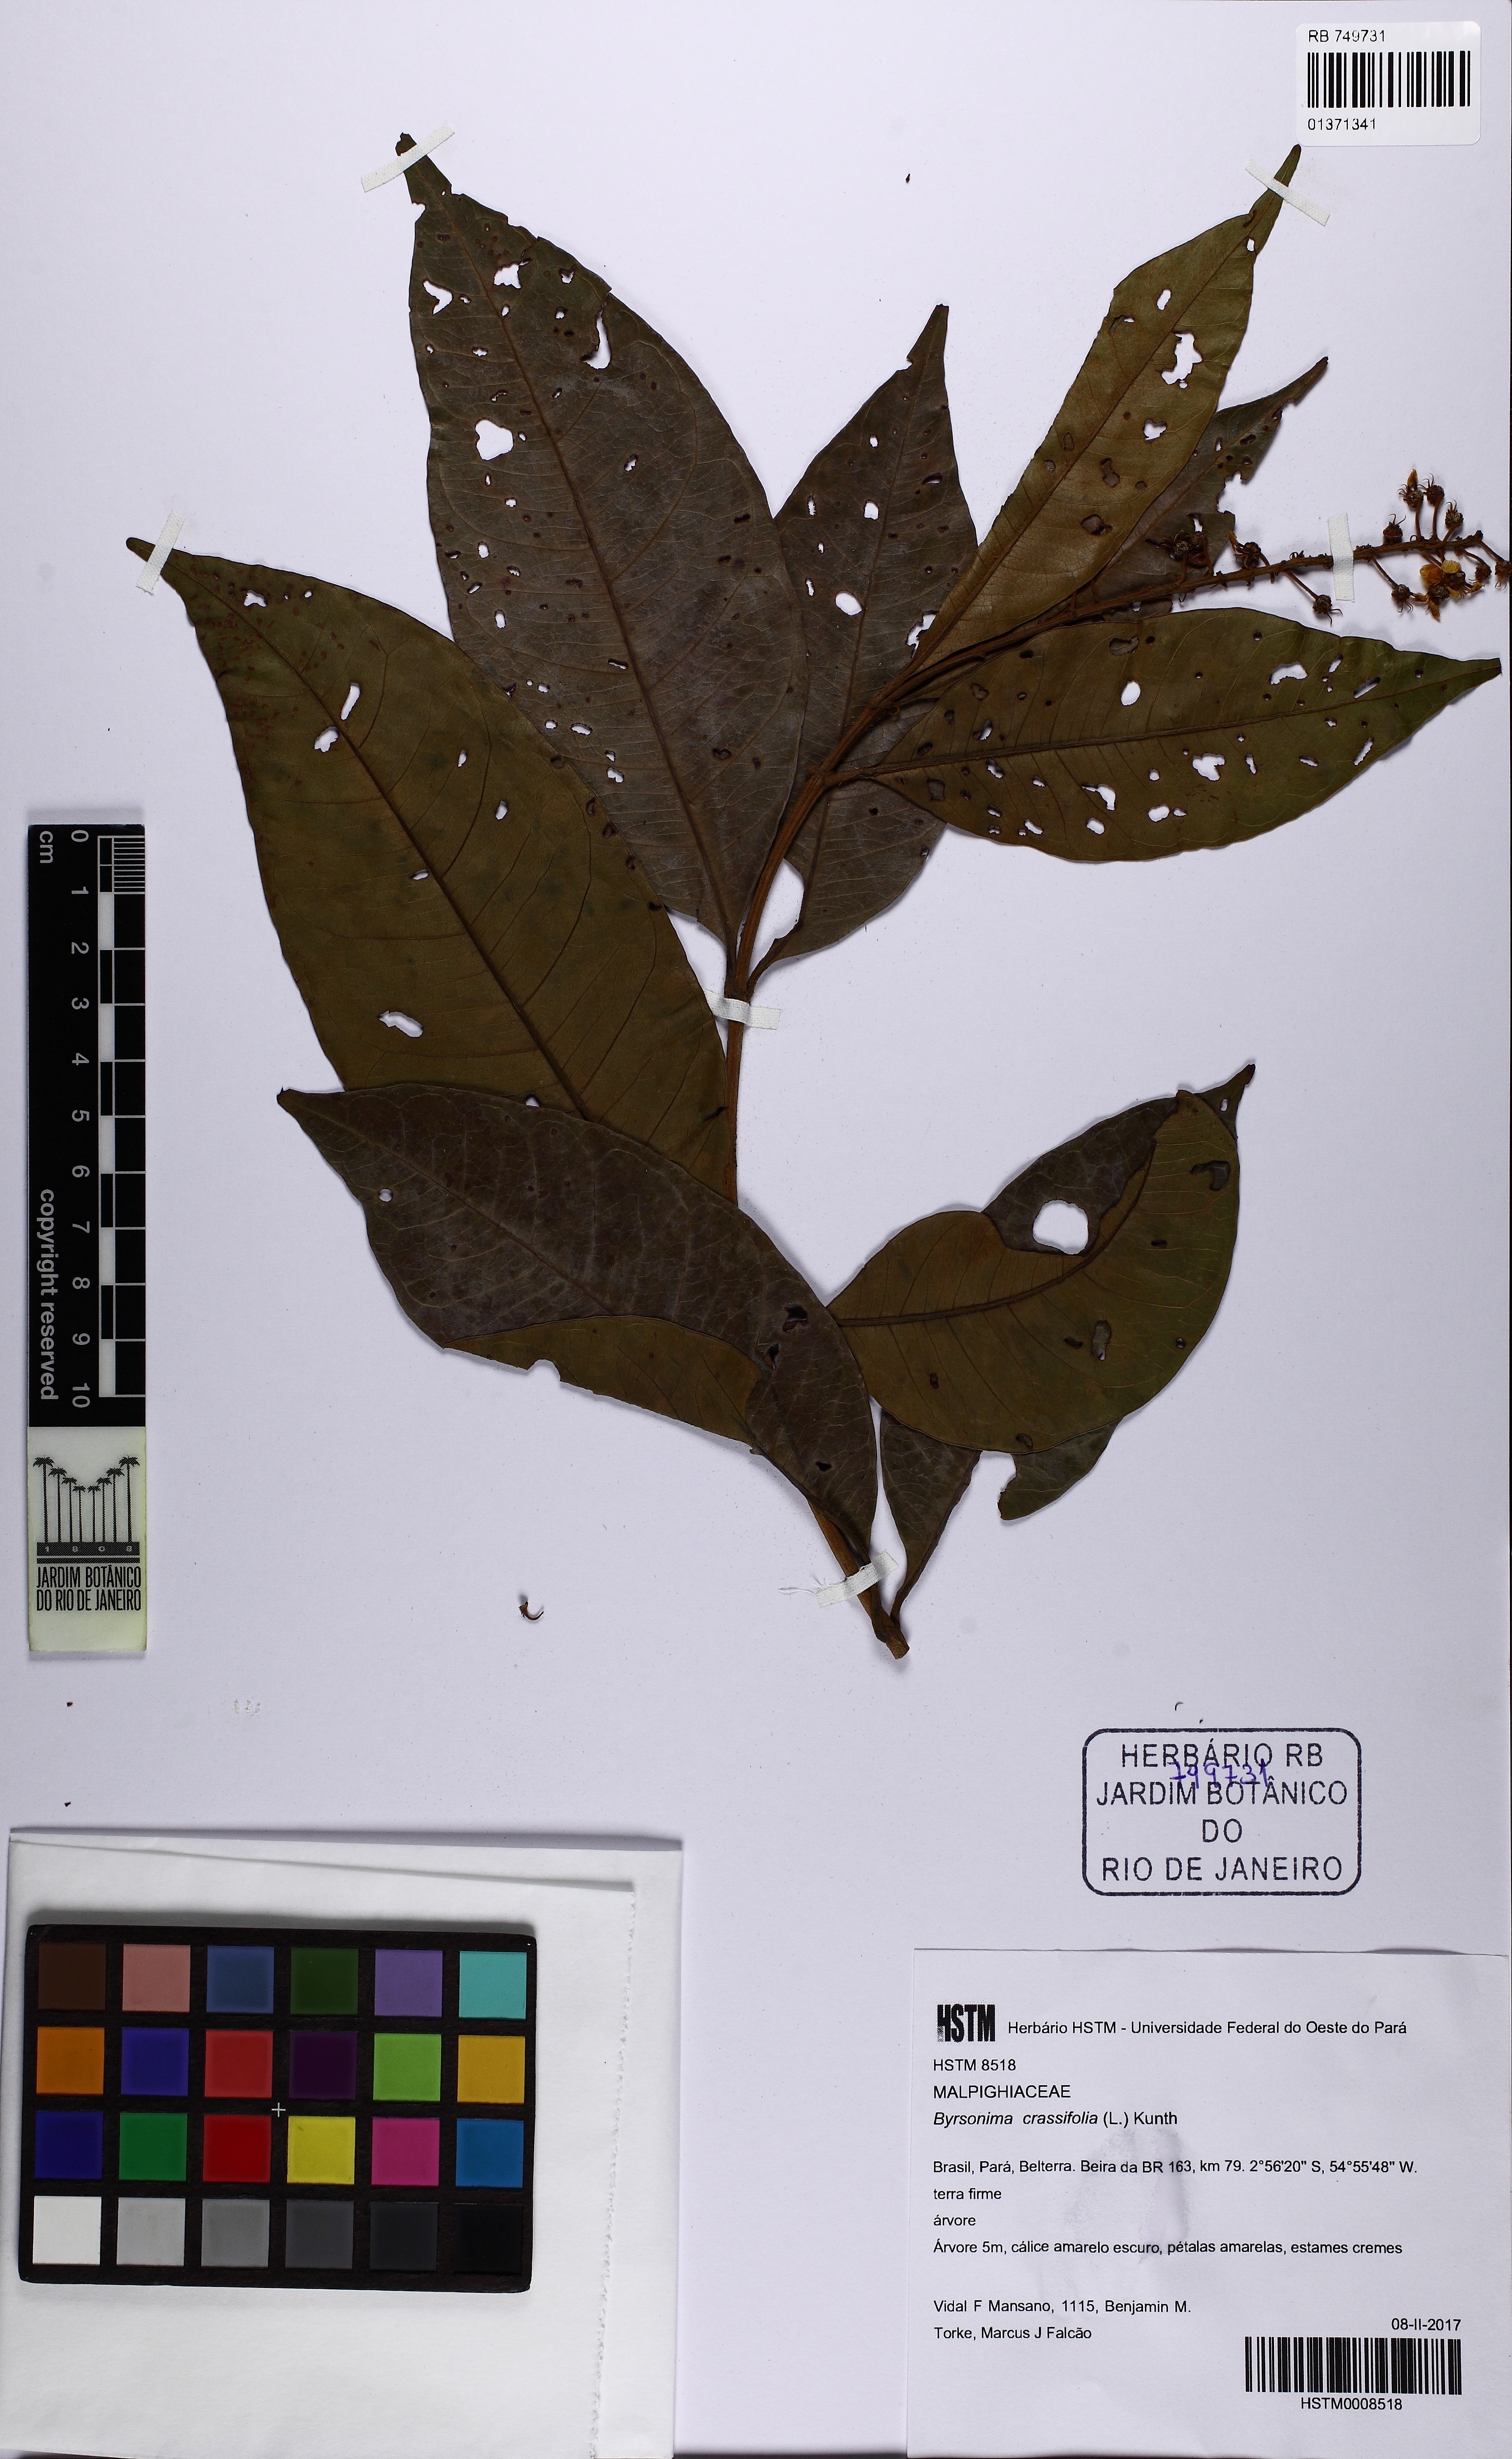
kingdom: Plantae
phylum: Tracheophyta
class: Magnoliopsida
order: Malpighiales
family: Malpighiaceae
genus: Byrsonima
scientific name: Byrsonima crassifolia
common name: Golden spoon
